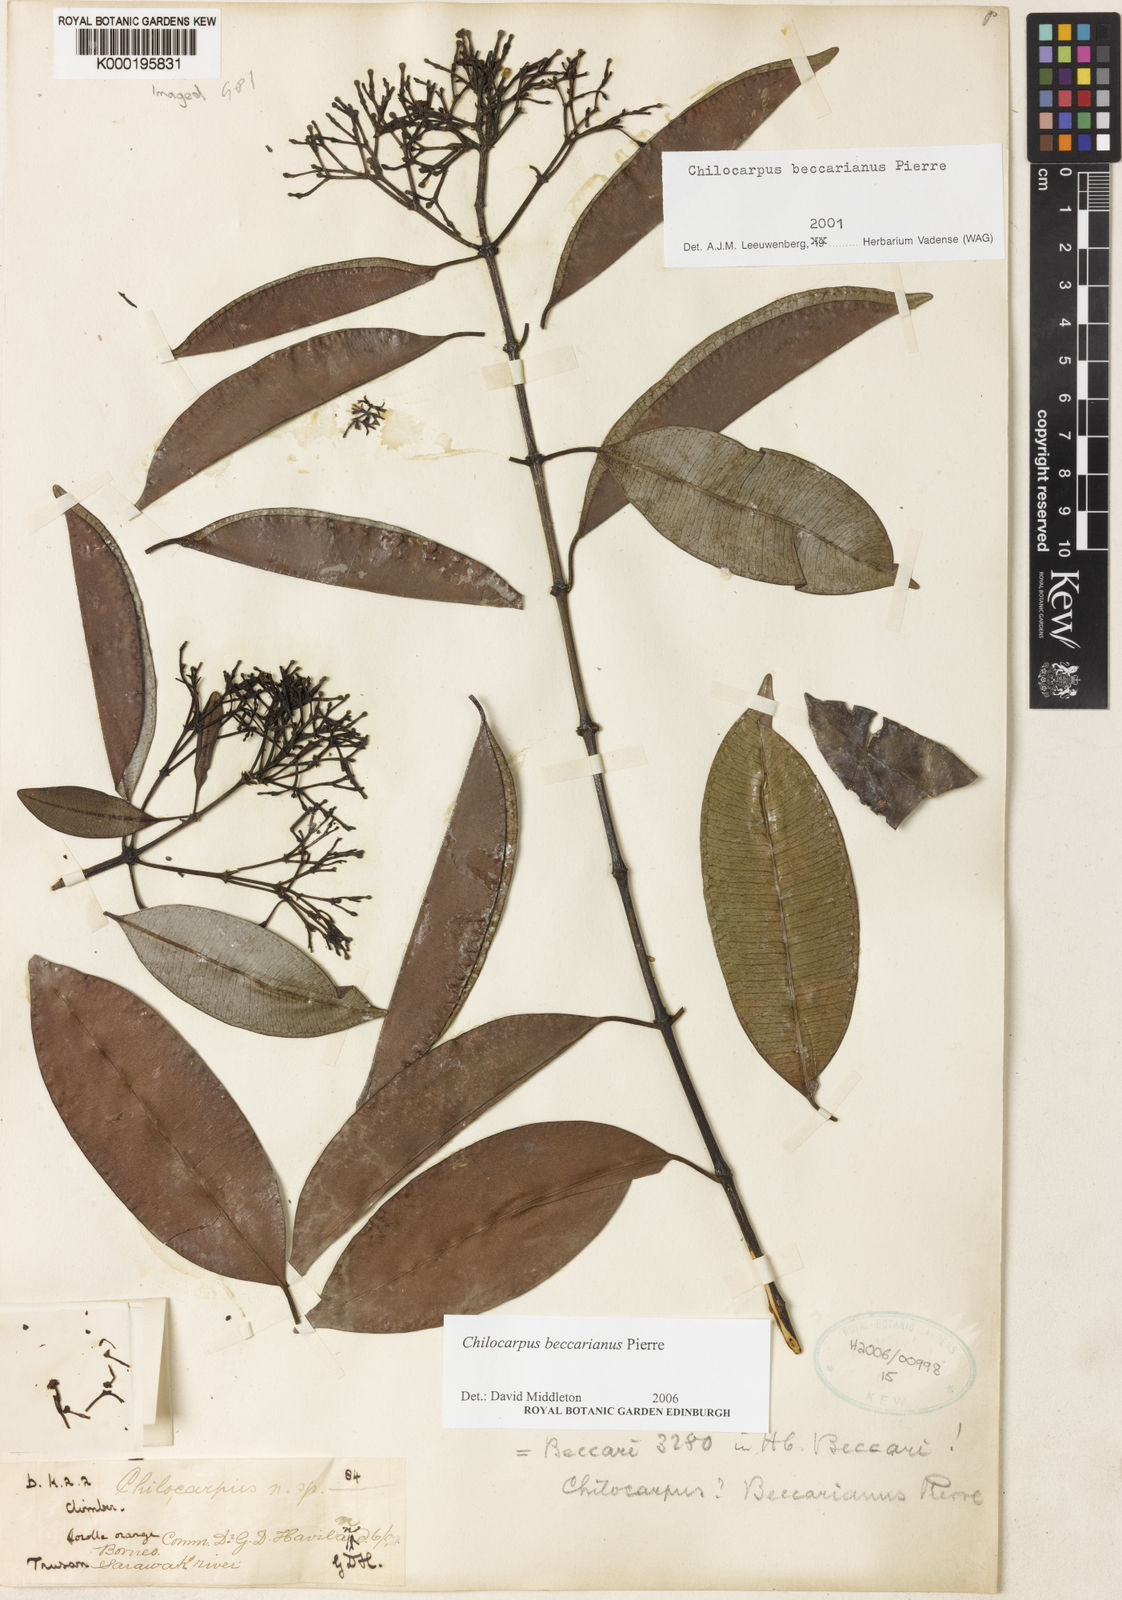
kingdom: Plantae
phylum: Tracheophyta
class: Magnoliopsida
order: Gentianales
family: Apocynaceae
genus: Chilocarpus
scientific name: Chilocarpus beccarianus
